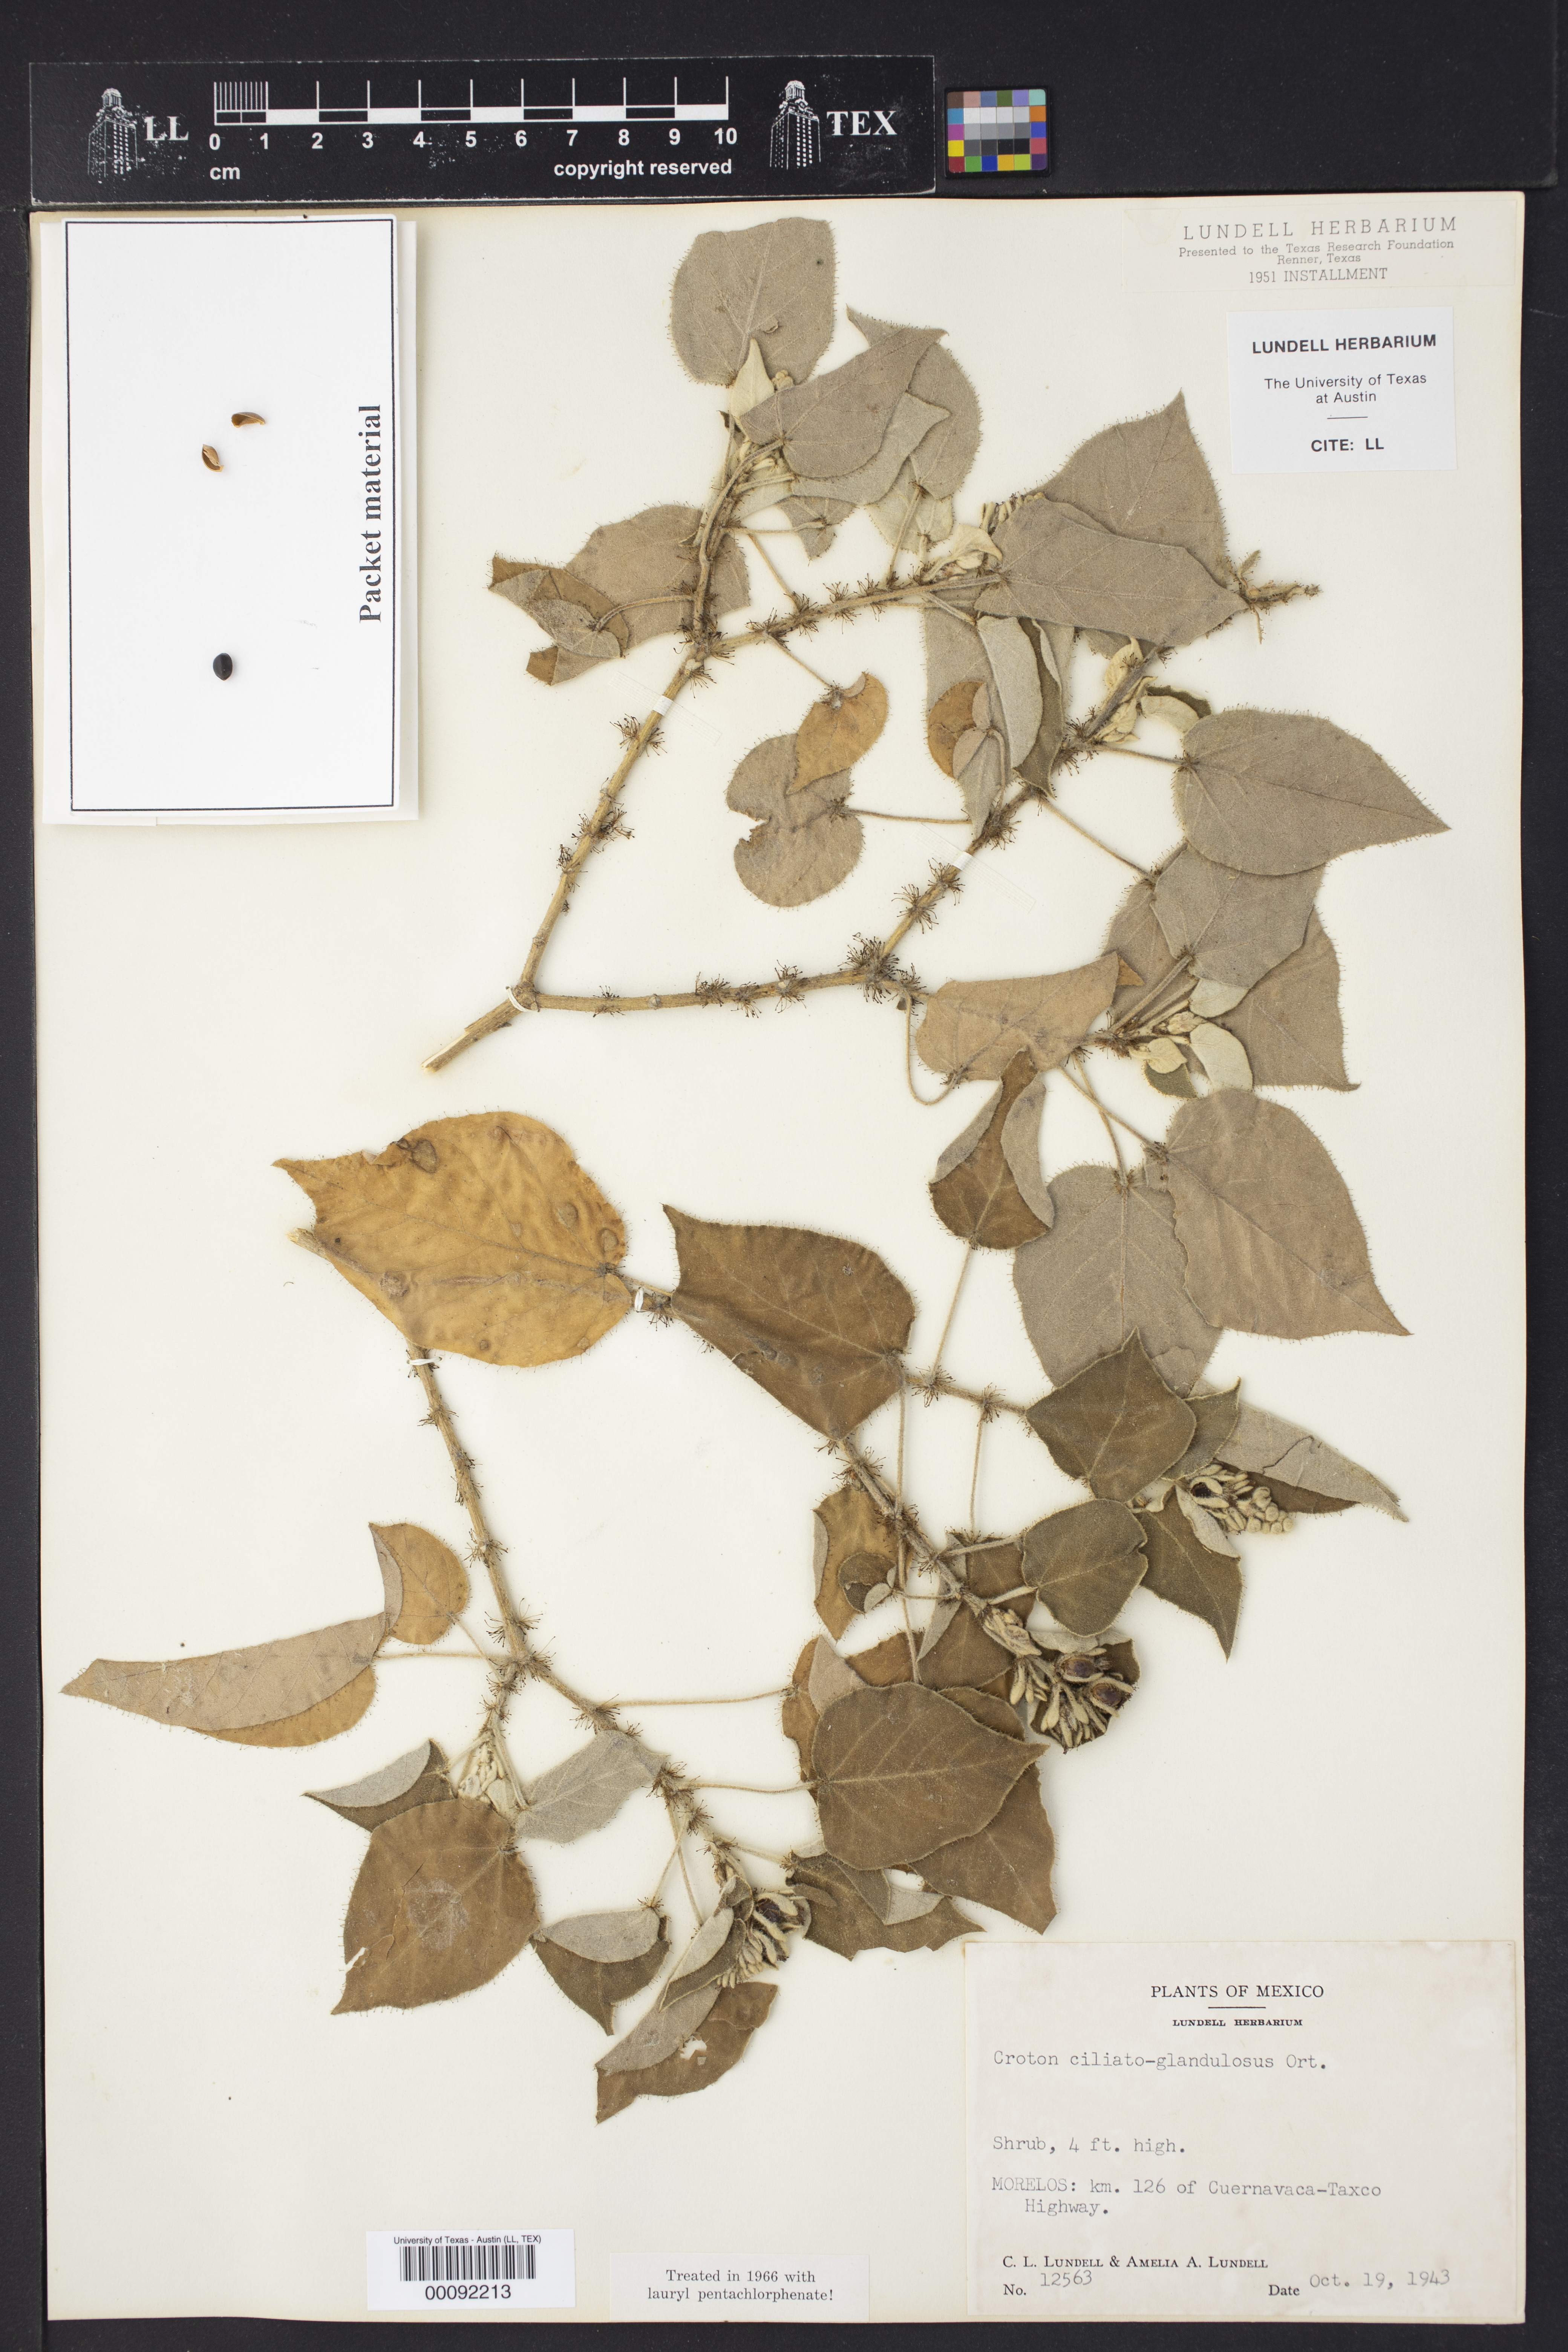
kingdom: Plantae
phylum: Tracheophyta
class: Magnoliopsida
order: Malpighiales
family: Euphorbiaceae
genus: Croton
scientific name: Croton ciliatoglandulifer
